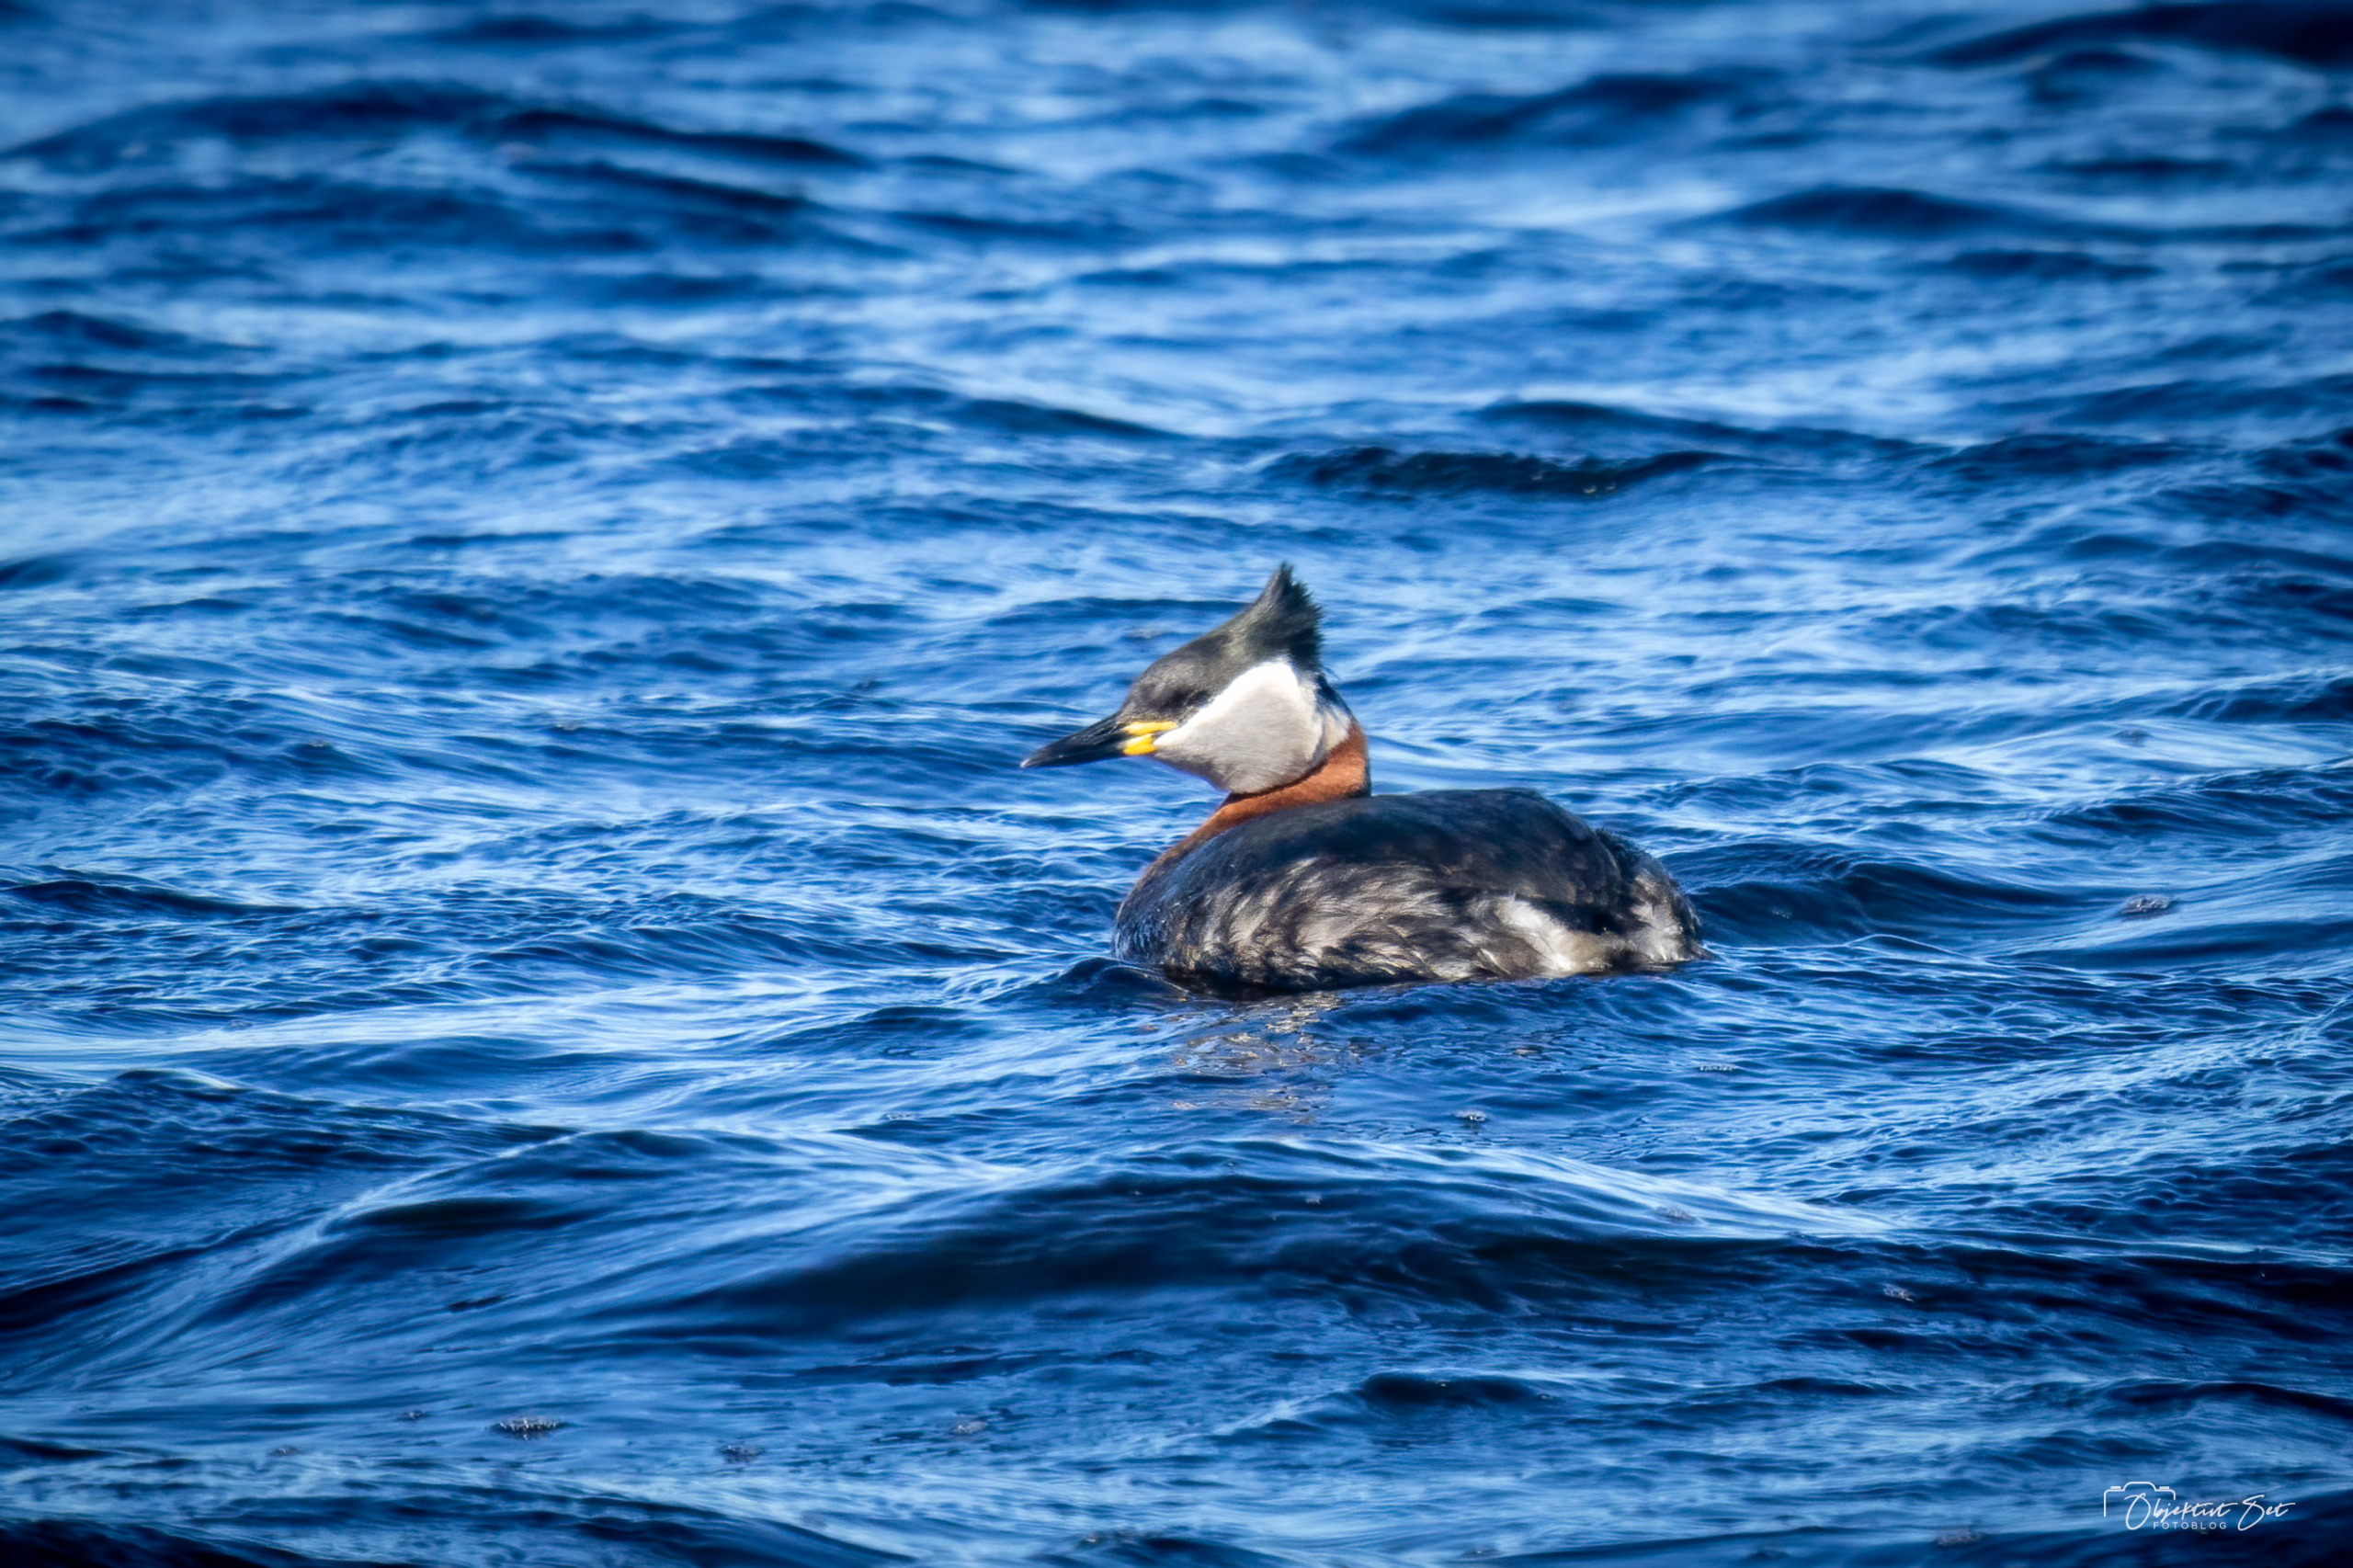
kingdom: Animalia
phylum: Chordata
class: Aves
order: Podicipediformes
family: Podicipedidae
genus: Podiceps
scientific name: Podiceps grisegena
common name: Gråstrubet lappedykker
